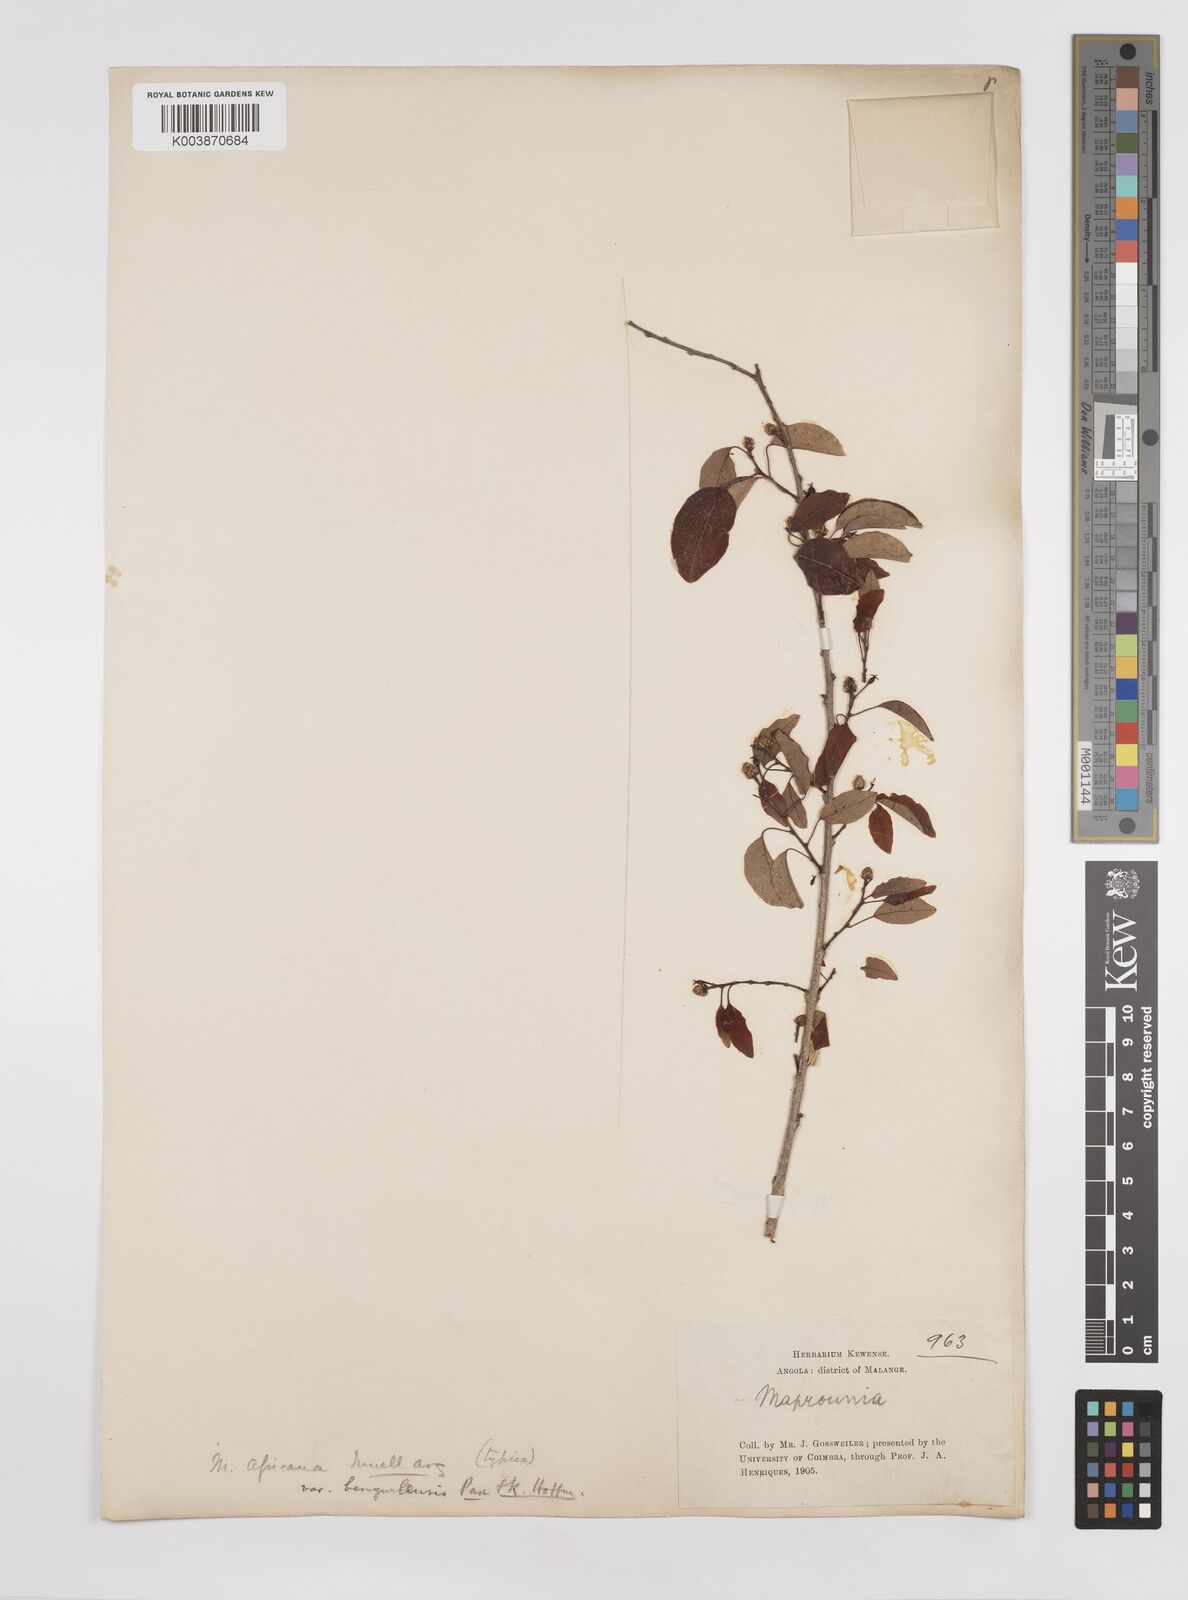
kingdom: Plantae
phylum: Tracheophyta
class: Magnoliopsida
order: Malpighiales
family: Euphorbiaceae
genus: Maprounea
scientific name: Maprounea africana
